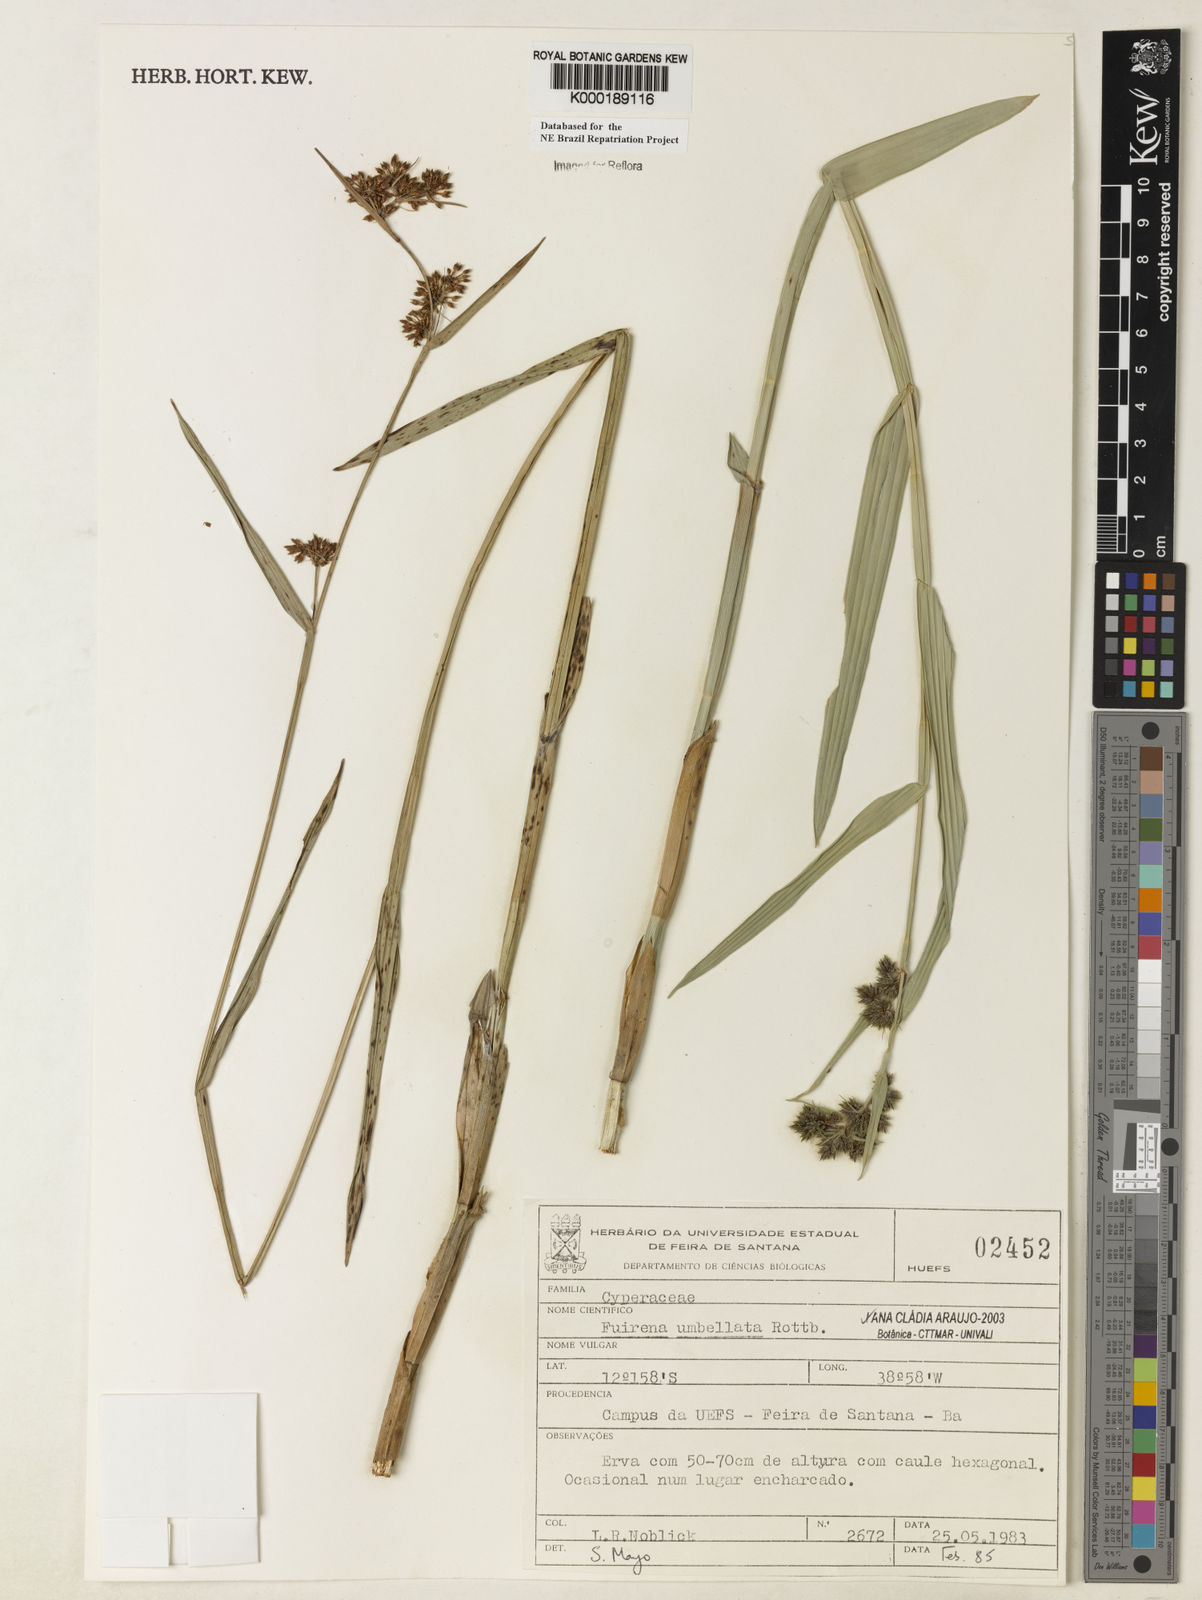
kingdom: Plantae
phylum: Tracheophyta
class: Liliopsida
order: Poales
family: Cyperaceae
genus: Fuirena
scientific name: Fuirena umbellata
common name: Yefen
